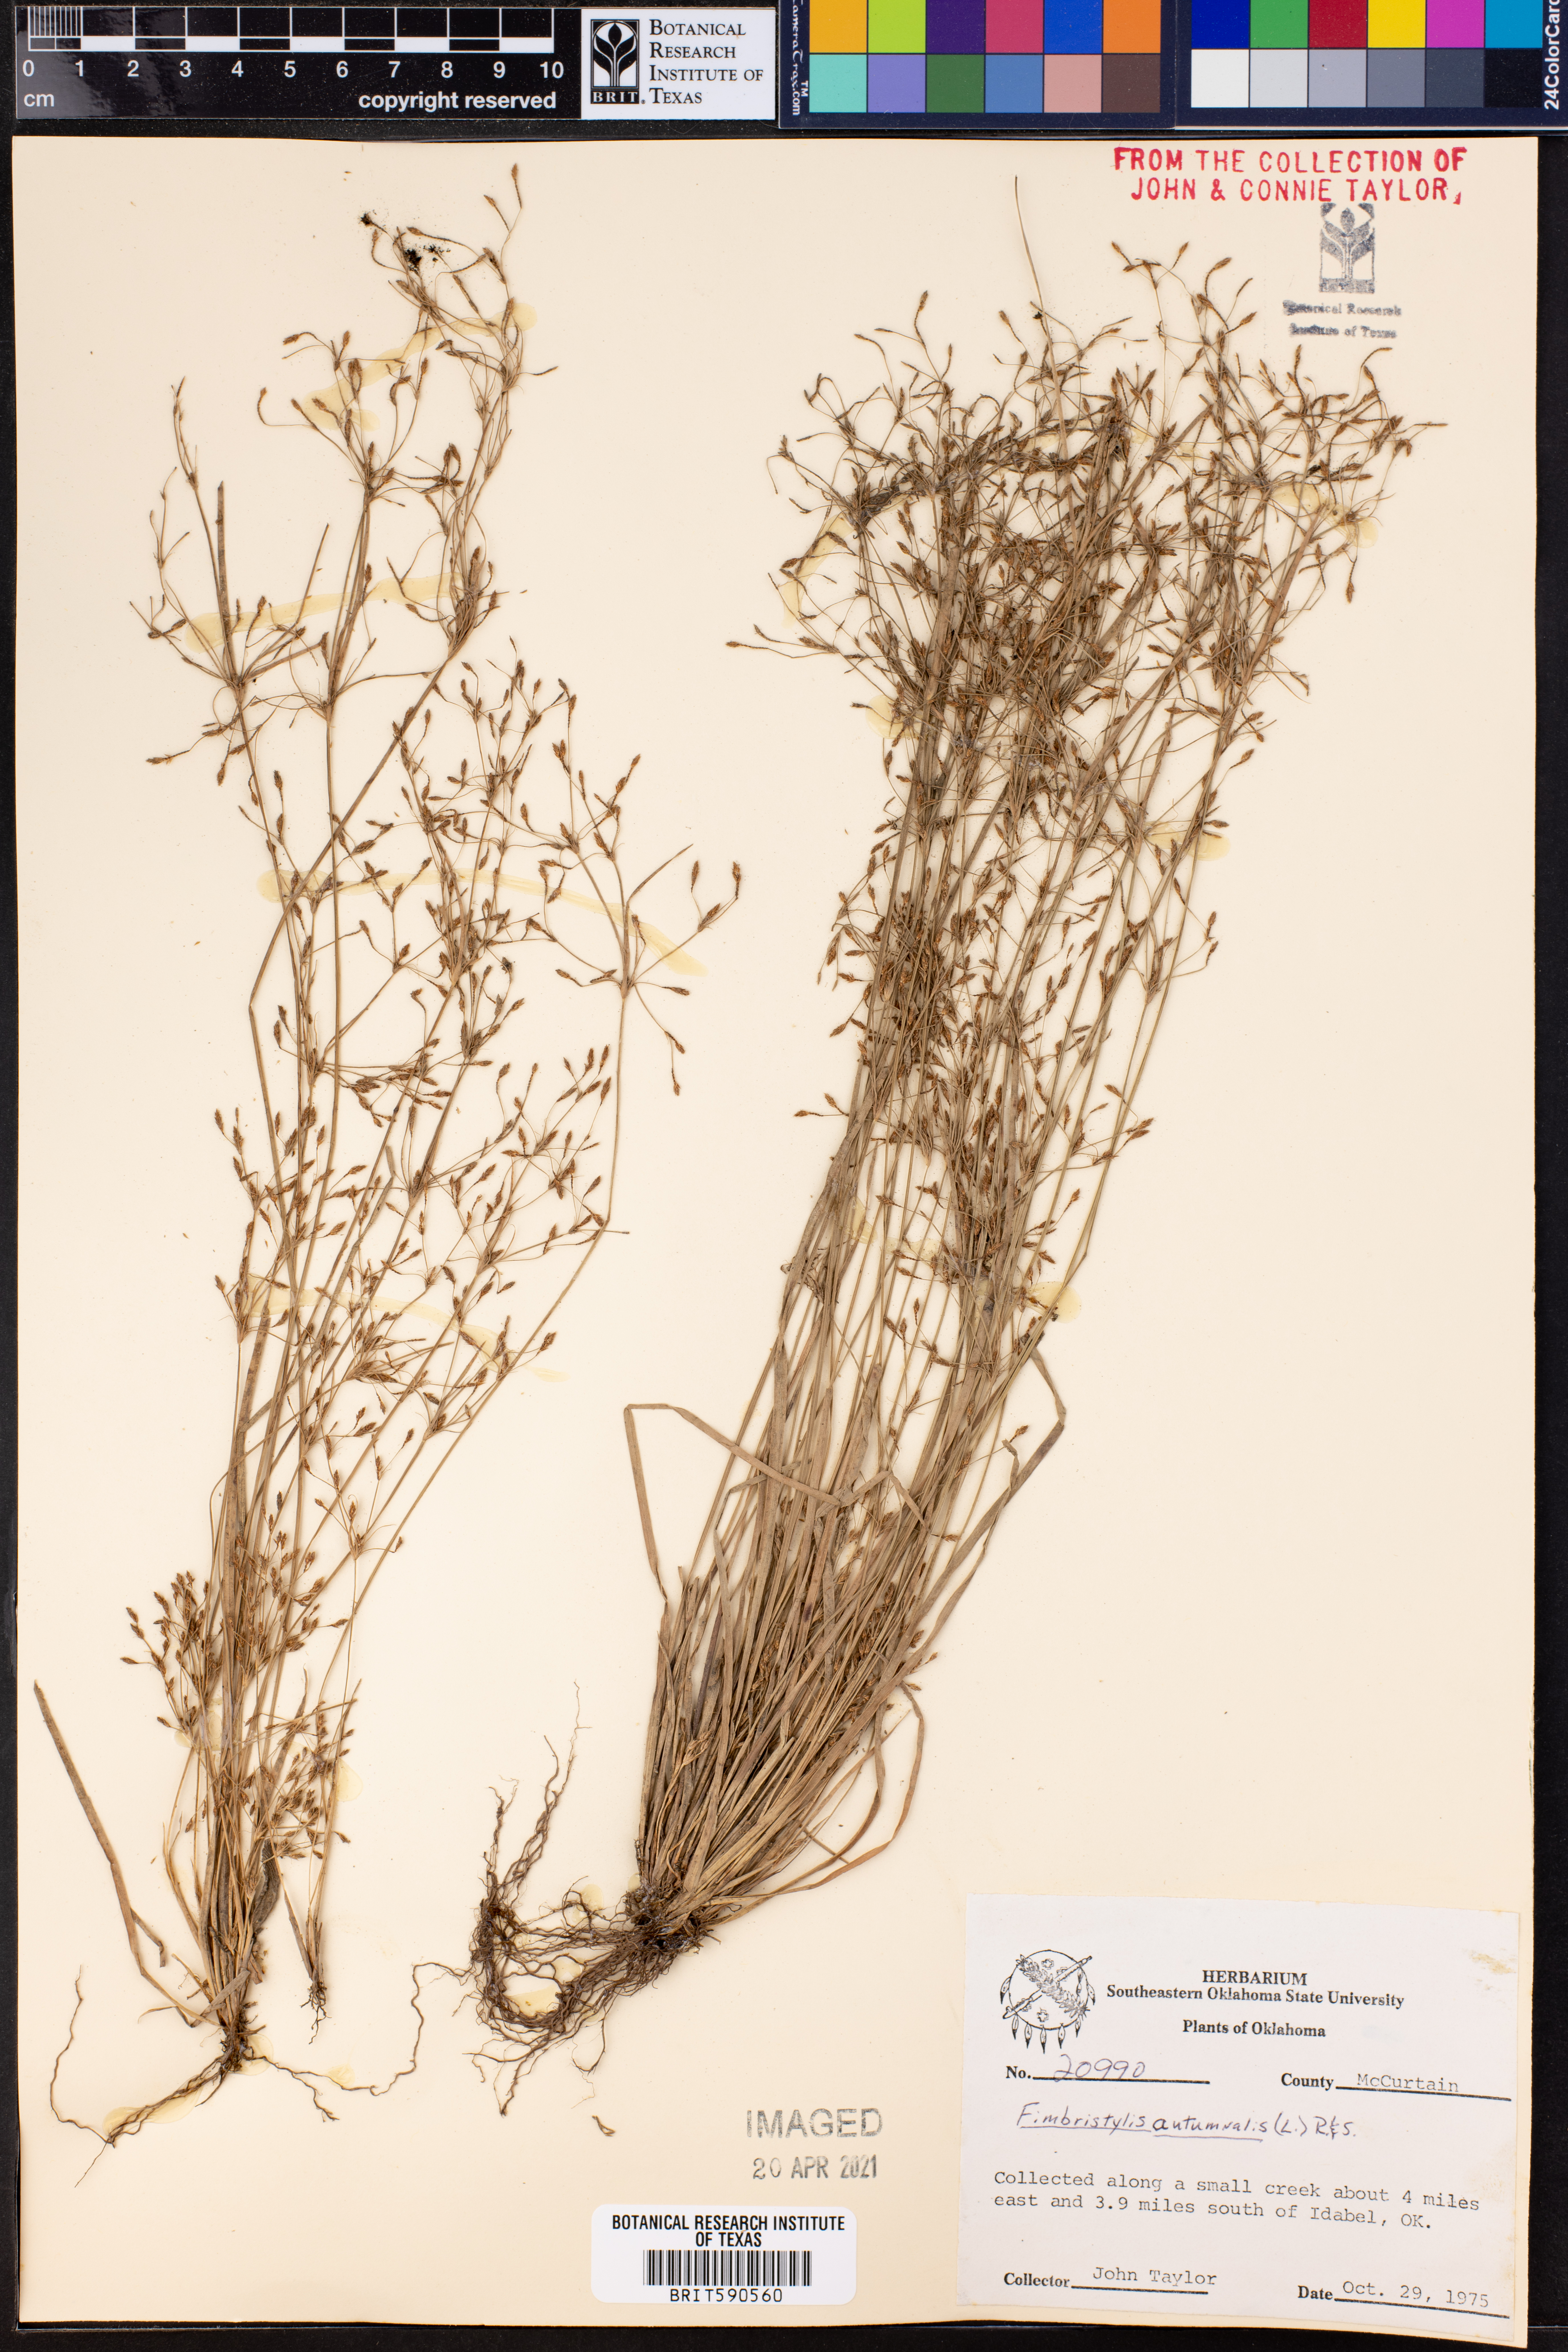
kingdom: Plantae
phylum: Tracheophyta
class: Liliopsida
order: Poales
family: Cyperaceae
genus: Fimbristylis
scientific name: Fimbristylis autumnalis
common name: Slender fimbristylis
